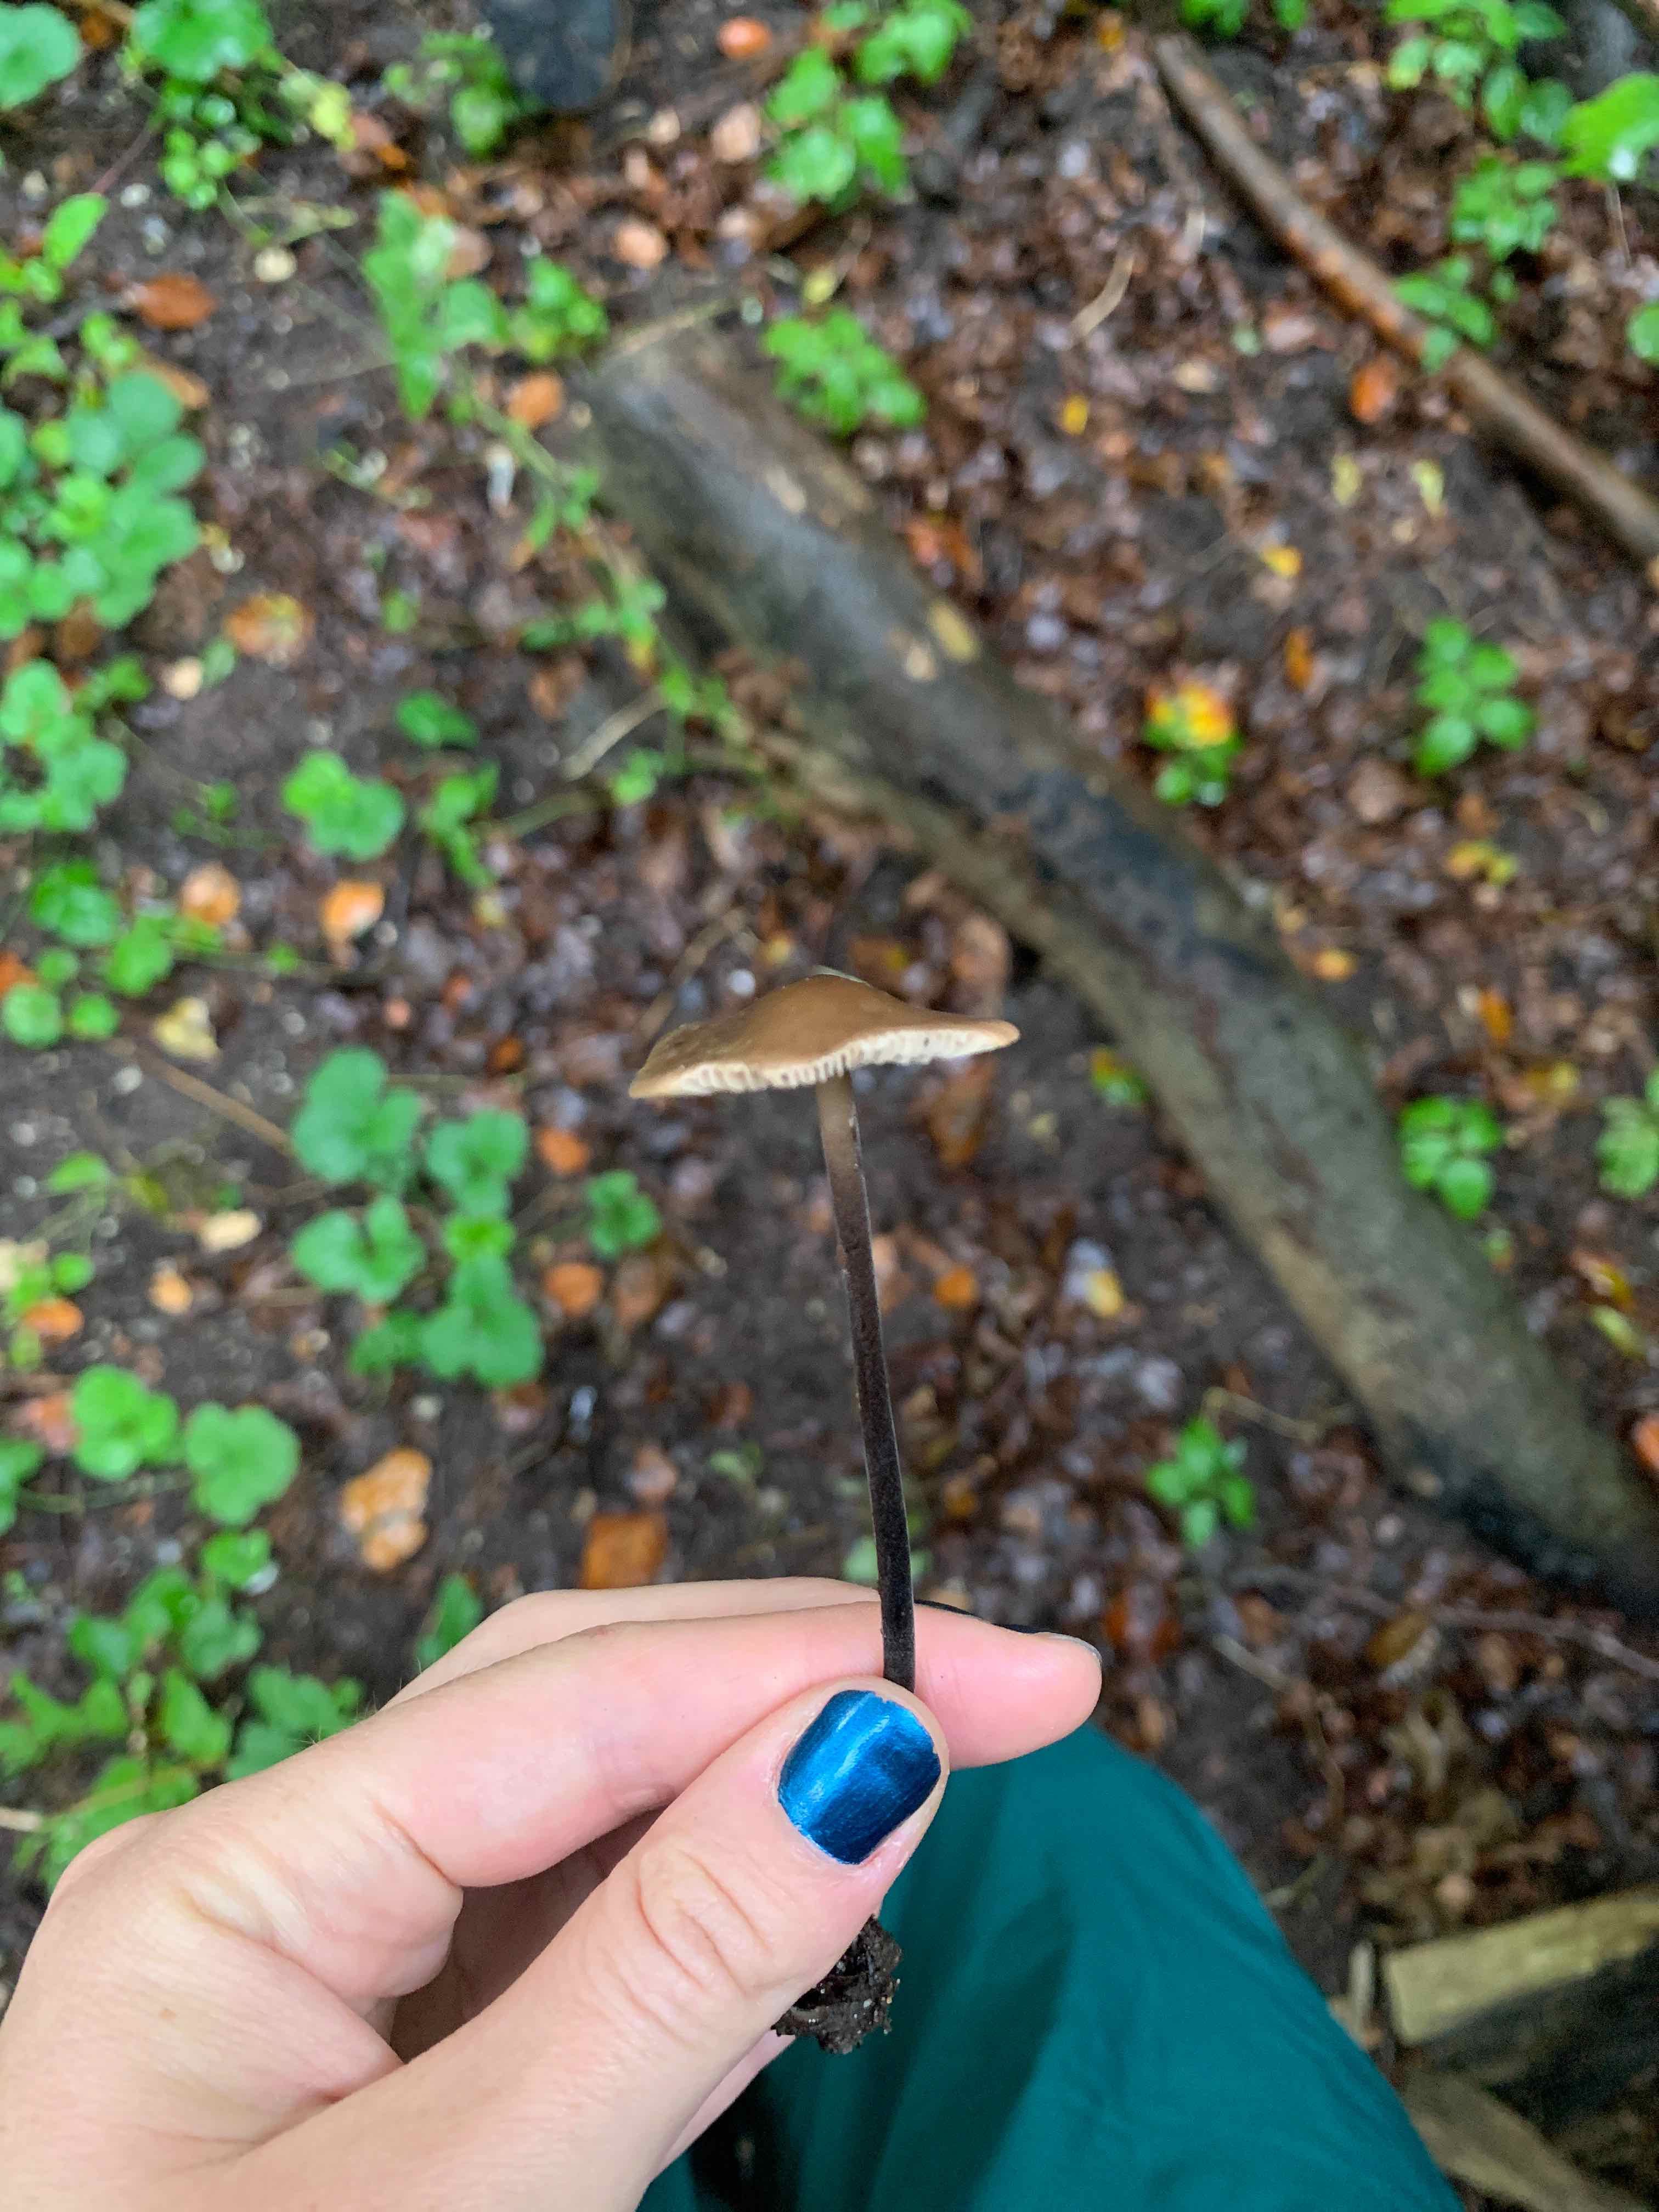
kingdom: Fungi
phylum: Basidiomycota
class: Agaricomycetes
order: Agaricales
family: Omphalotaceae
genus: Mycetinis
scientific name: Mycetinis alliaceus
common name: stor løghat
